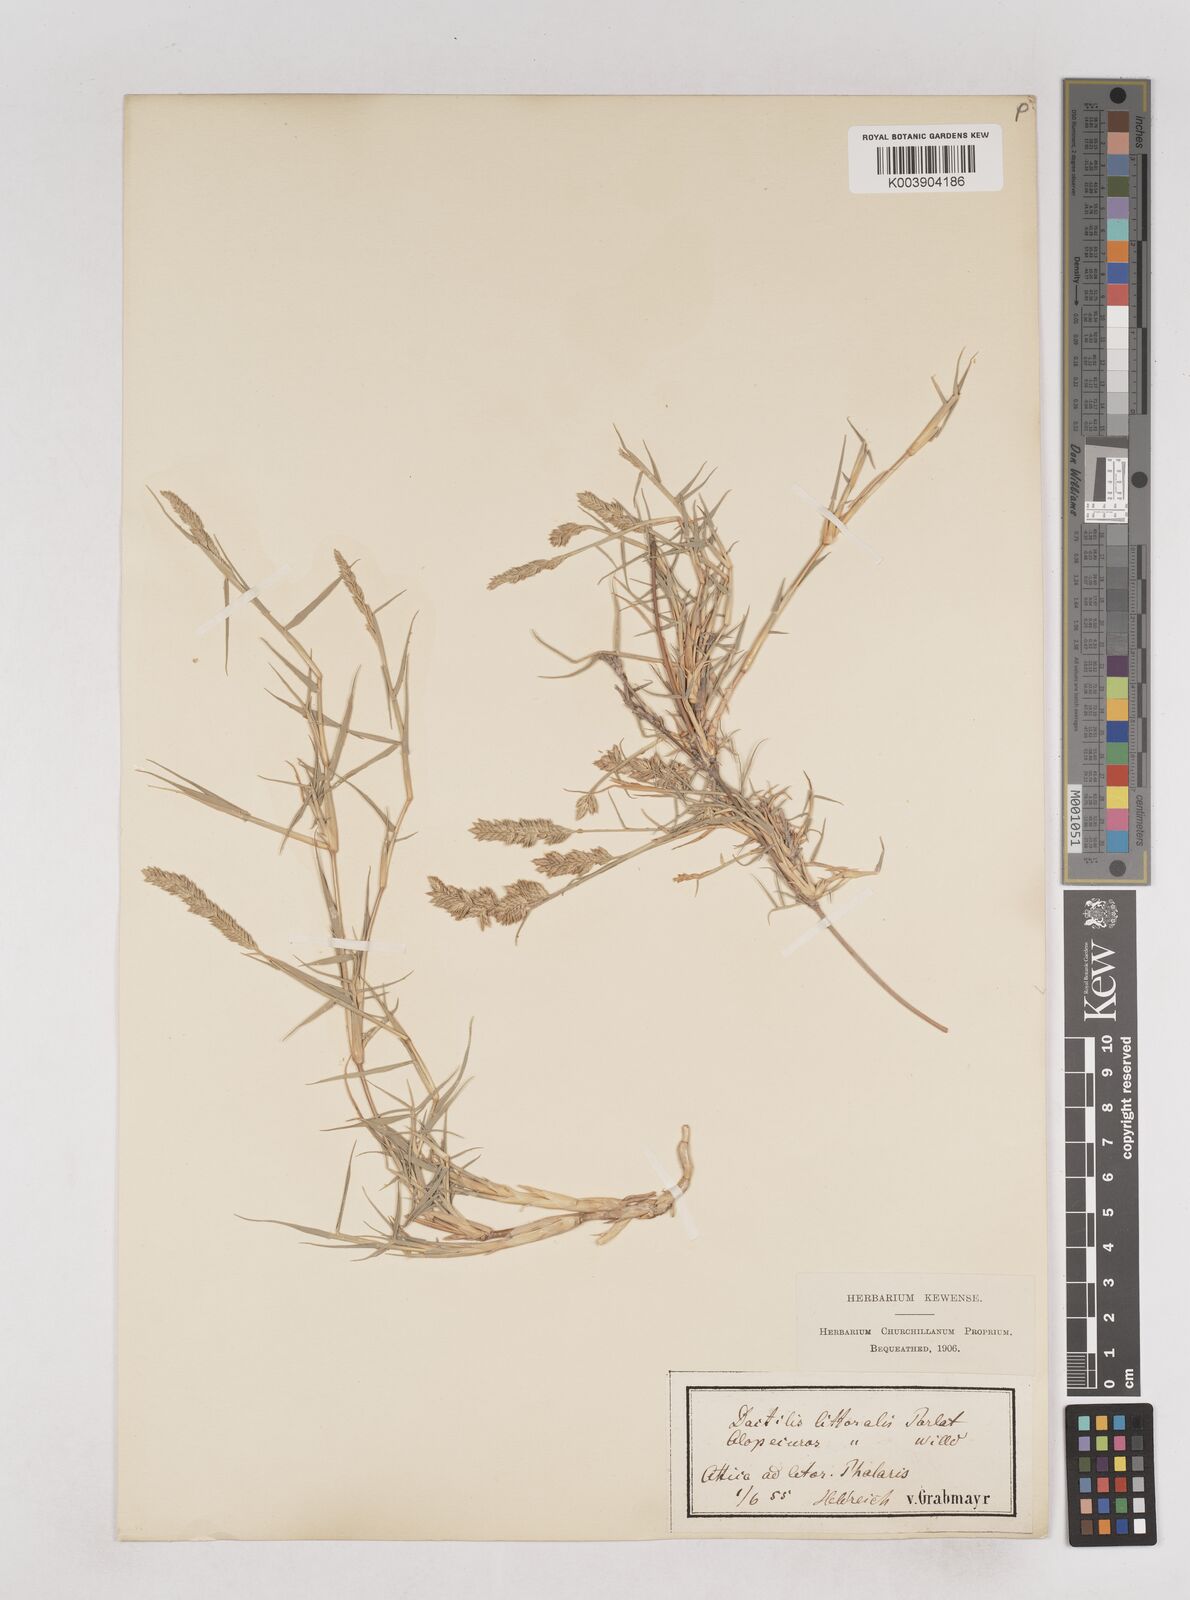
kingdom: Plantae
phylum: Tracheophyta
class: Liliopsida
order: Poales
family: Poaceae
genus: Aeluropus
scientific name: Aeluropus littoralis
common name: Indian walnut
